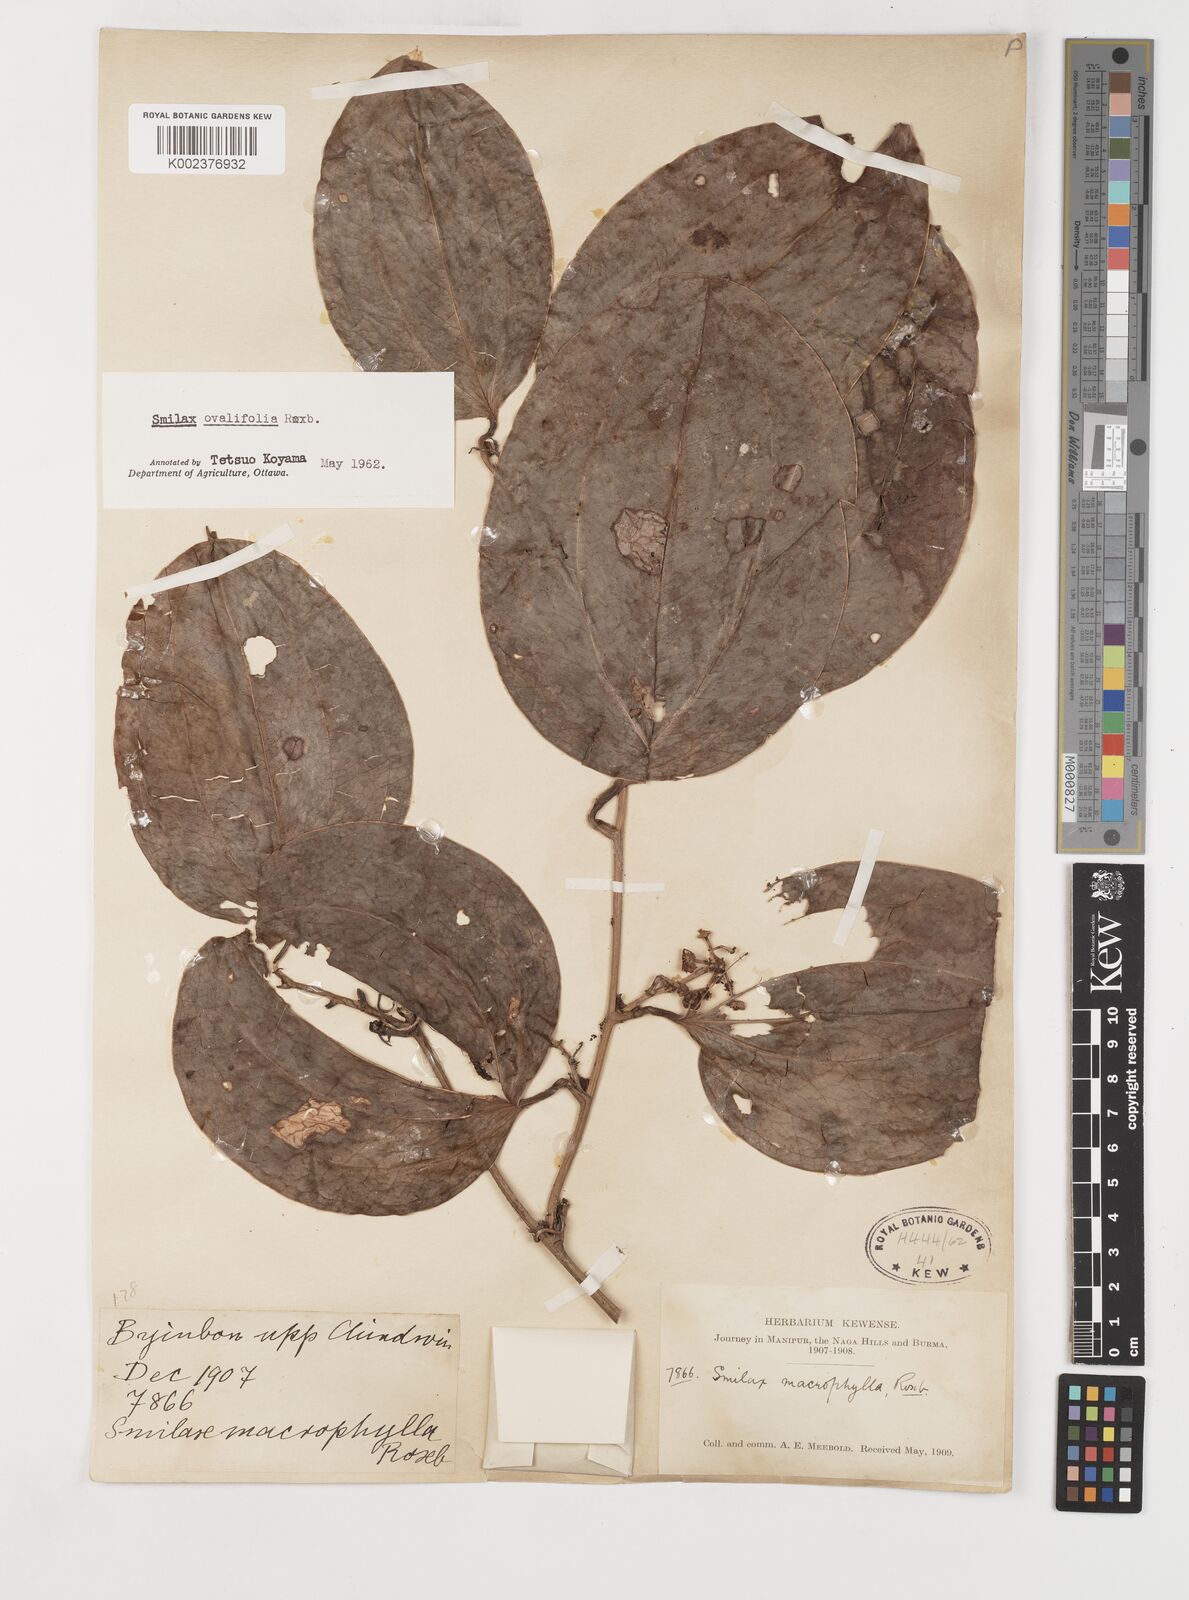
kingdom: Plantae
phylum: Tracheophyta
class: Liliopsida
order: Liliales
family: Smilacaceae
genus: Smilax
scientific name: Smilax ovalifolia
